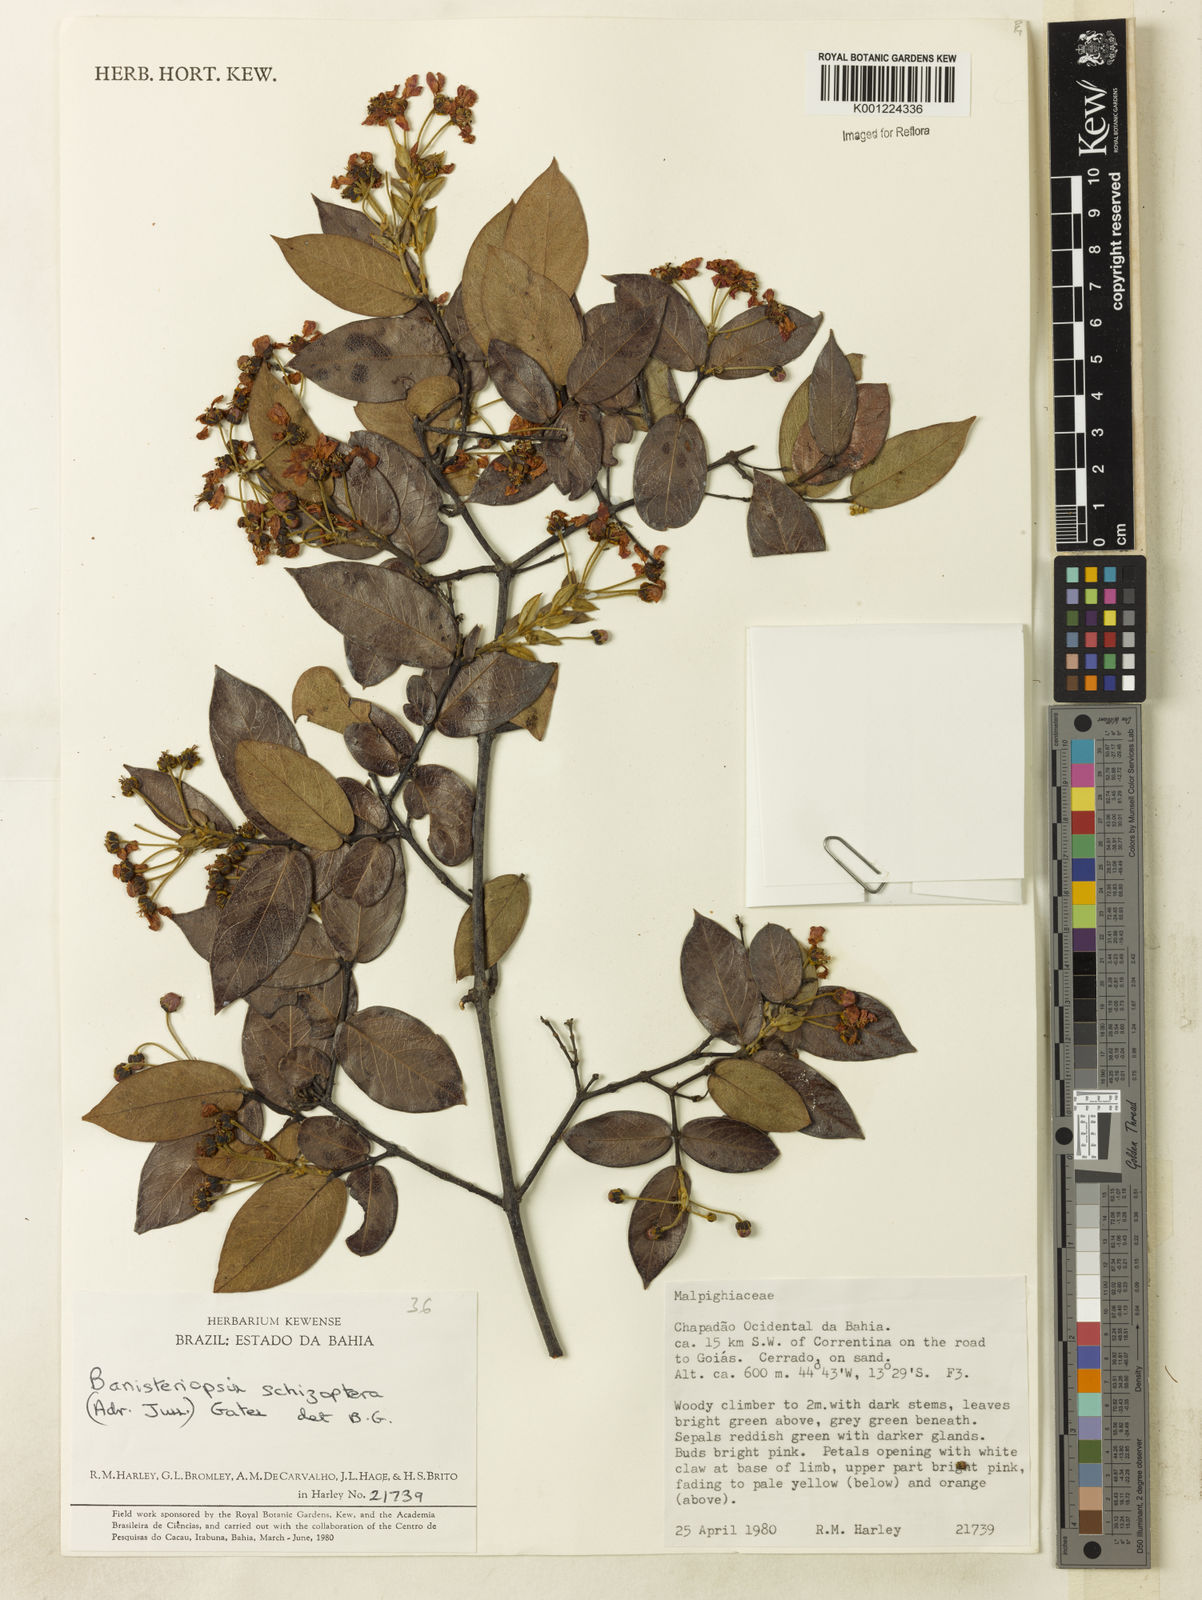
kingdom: Plantae
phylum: Tracheophyta
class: Magnoliopsida
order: Malpighiales
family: Malpighiaceae
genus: Banisteriopsis
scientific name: Banisteriopsis schizoptera
